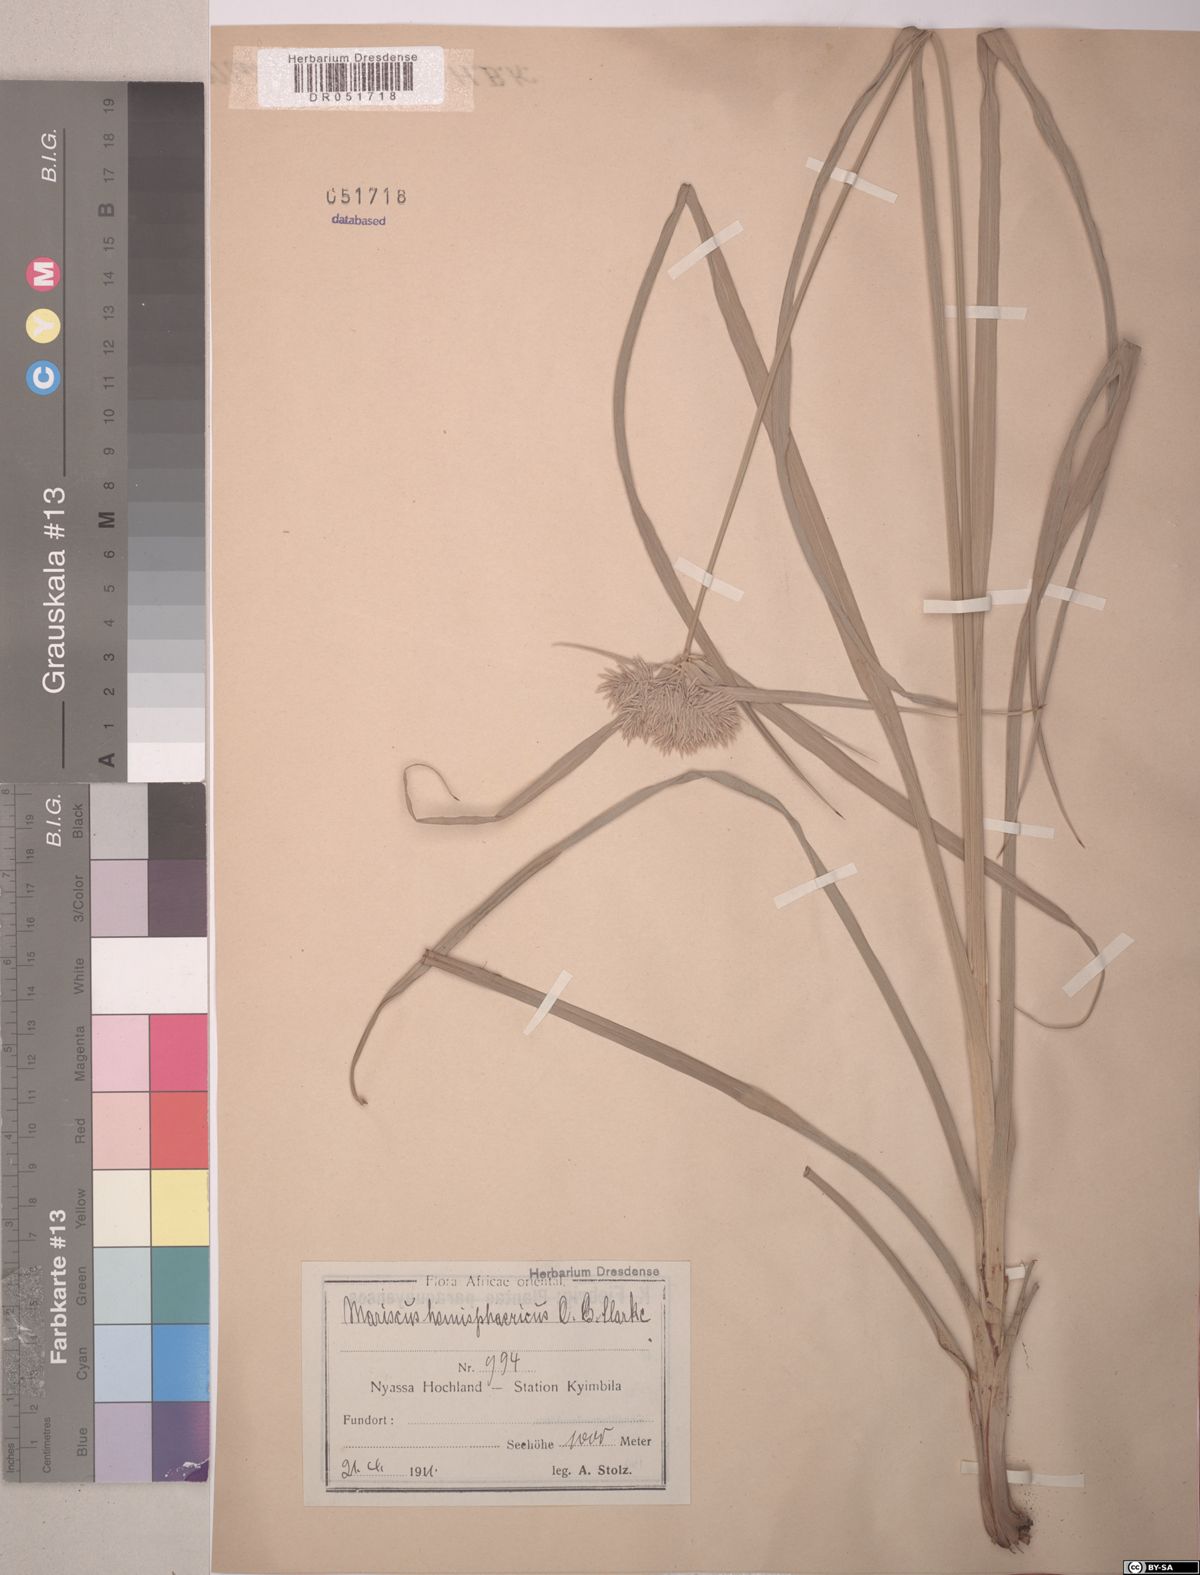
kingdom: Plantae
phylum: Tracheophyta
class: Liliopsida
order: Poales
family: Cyperaceae
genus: Cyperus
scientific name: Cyperus hemisphaericus
